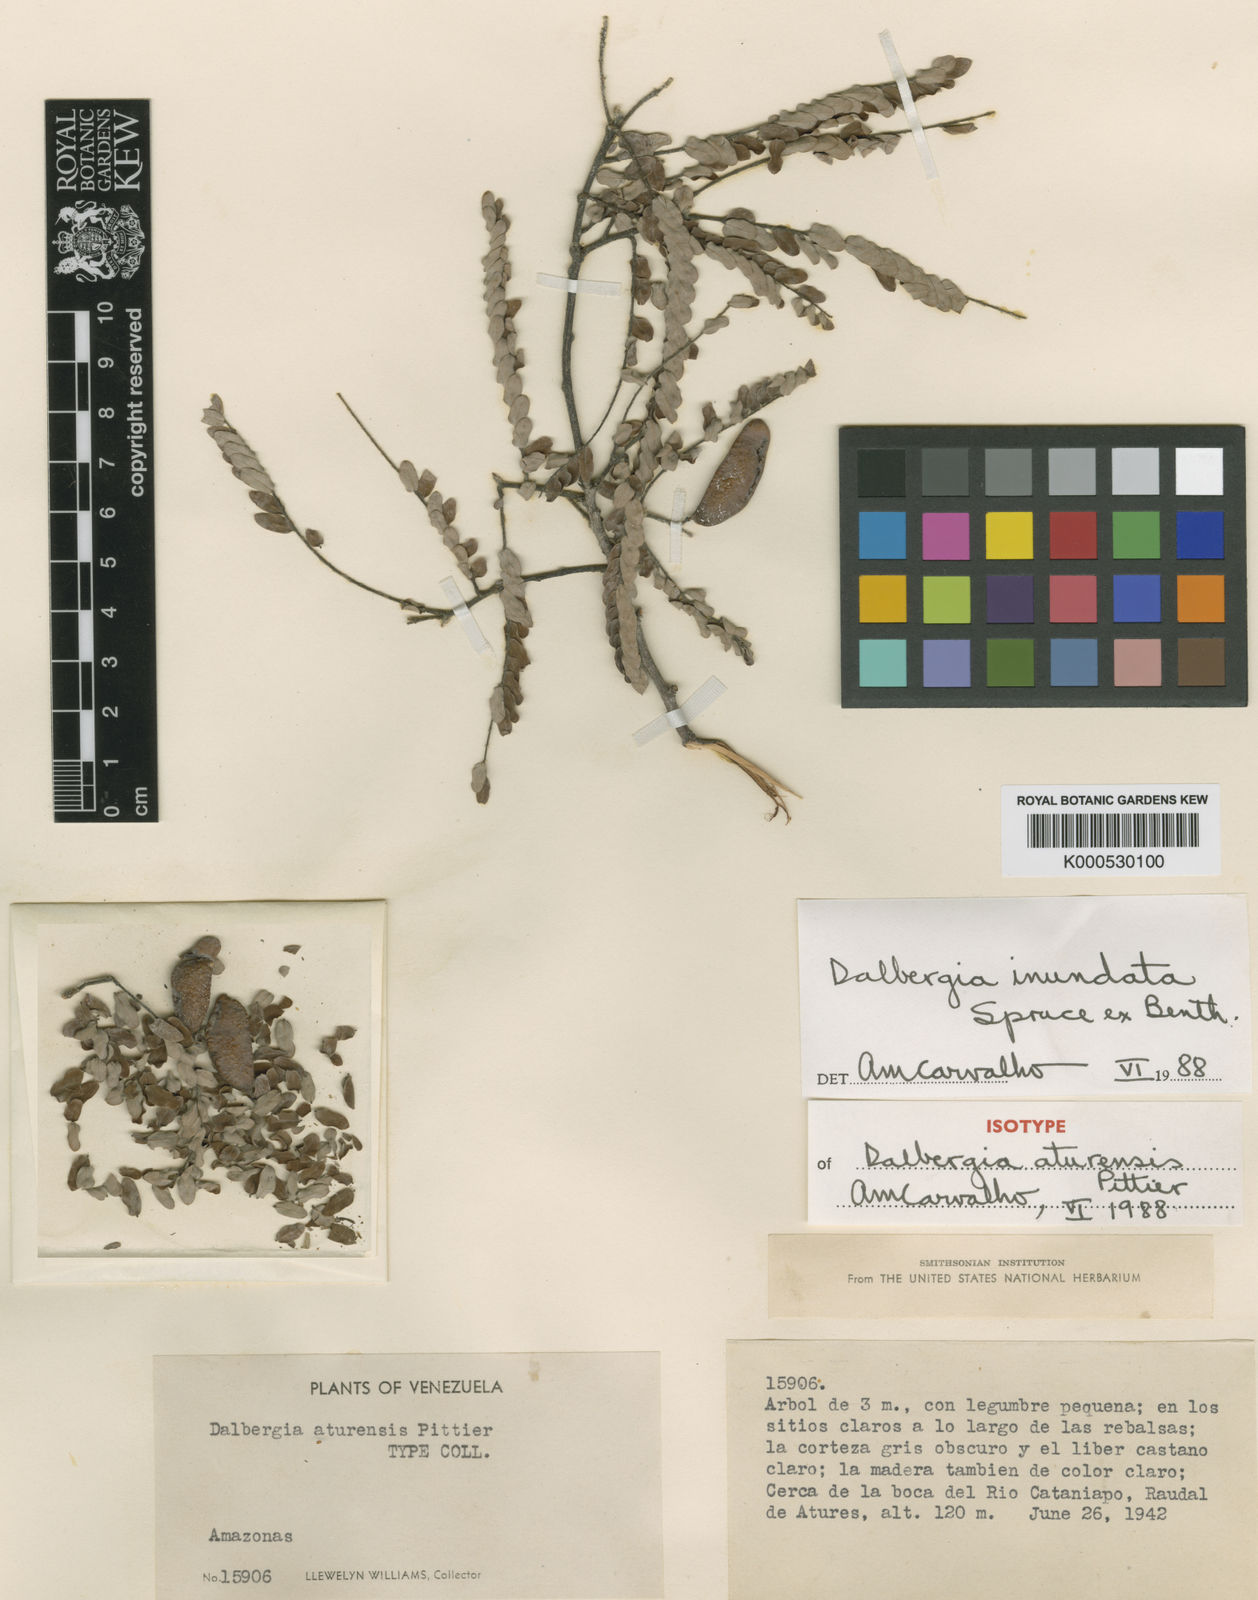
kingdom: Plantae
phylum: Tracheophyta
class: Magnoliopsida
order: Fabales
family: Fabaceae
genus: Dalbergia
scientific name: Dalbergia inundata
